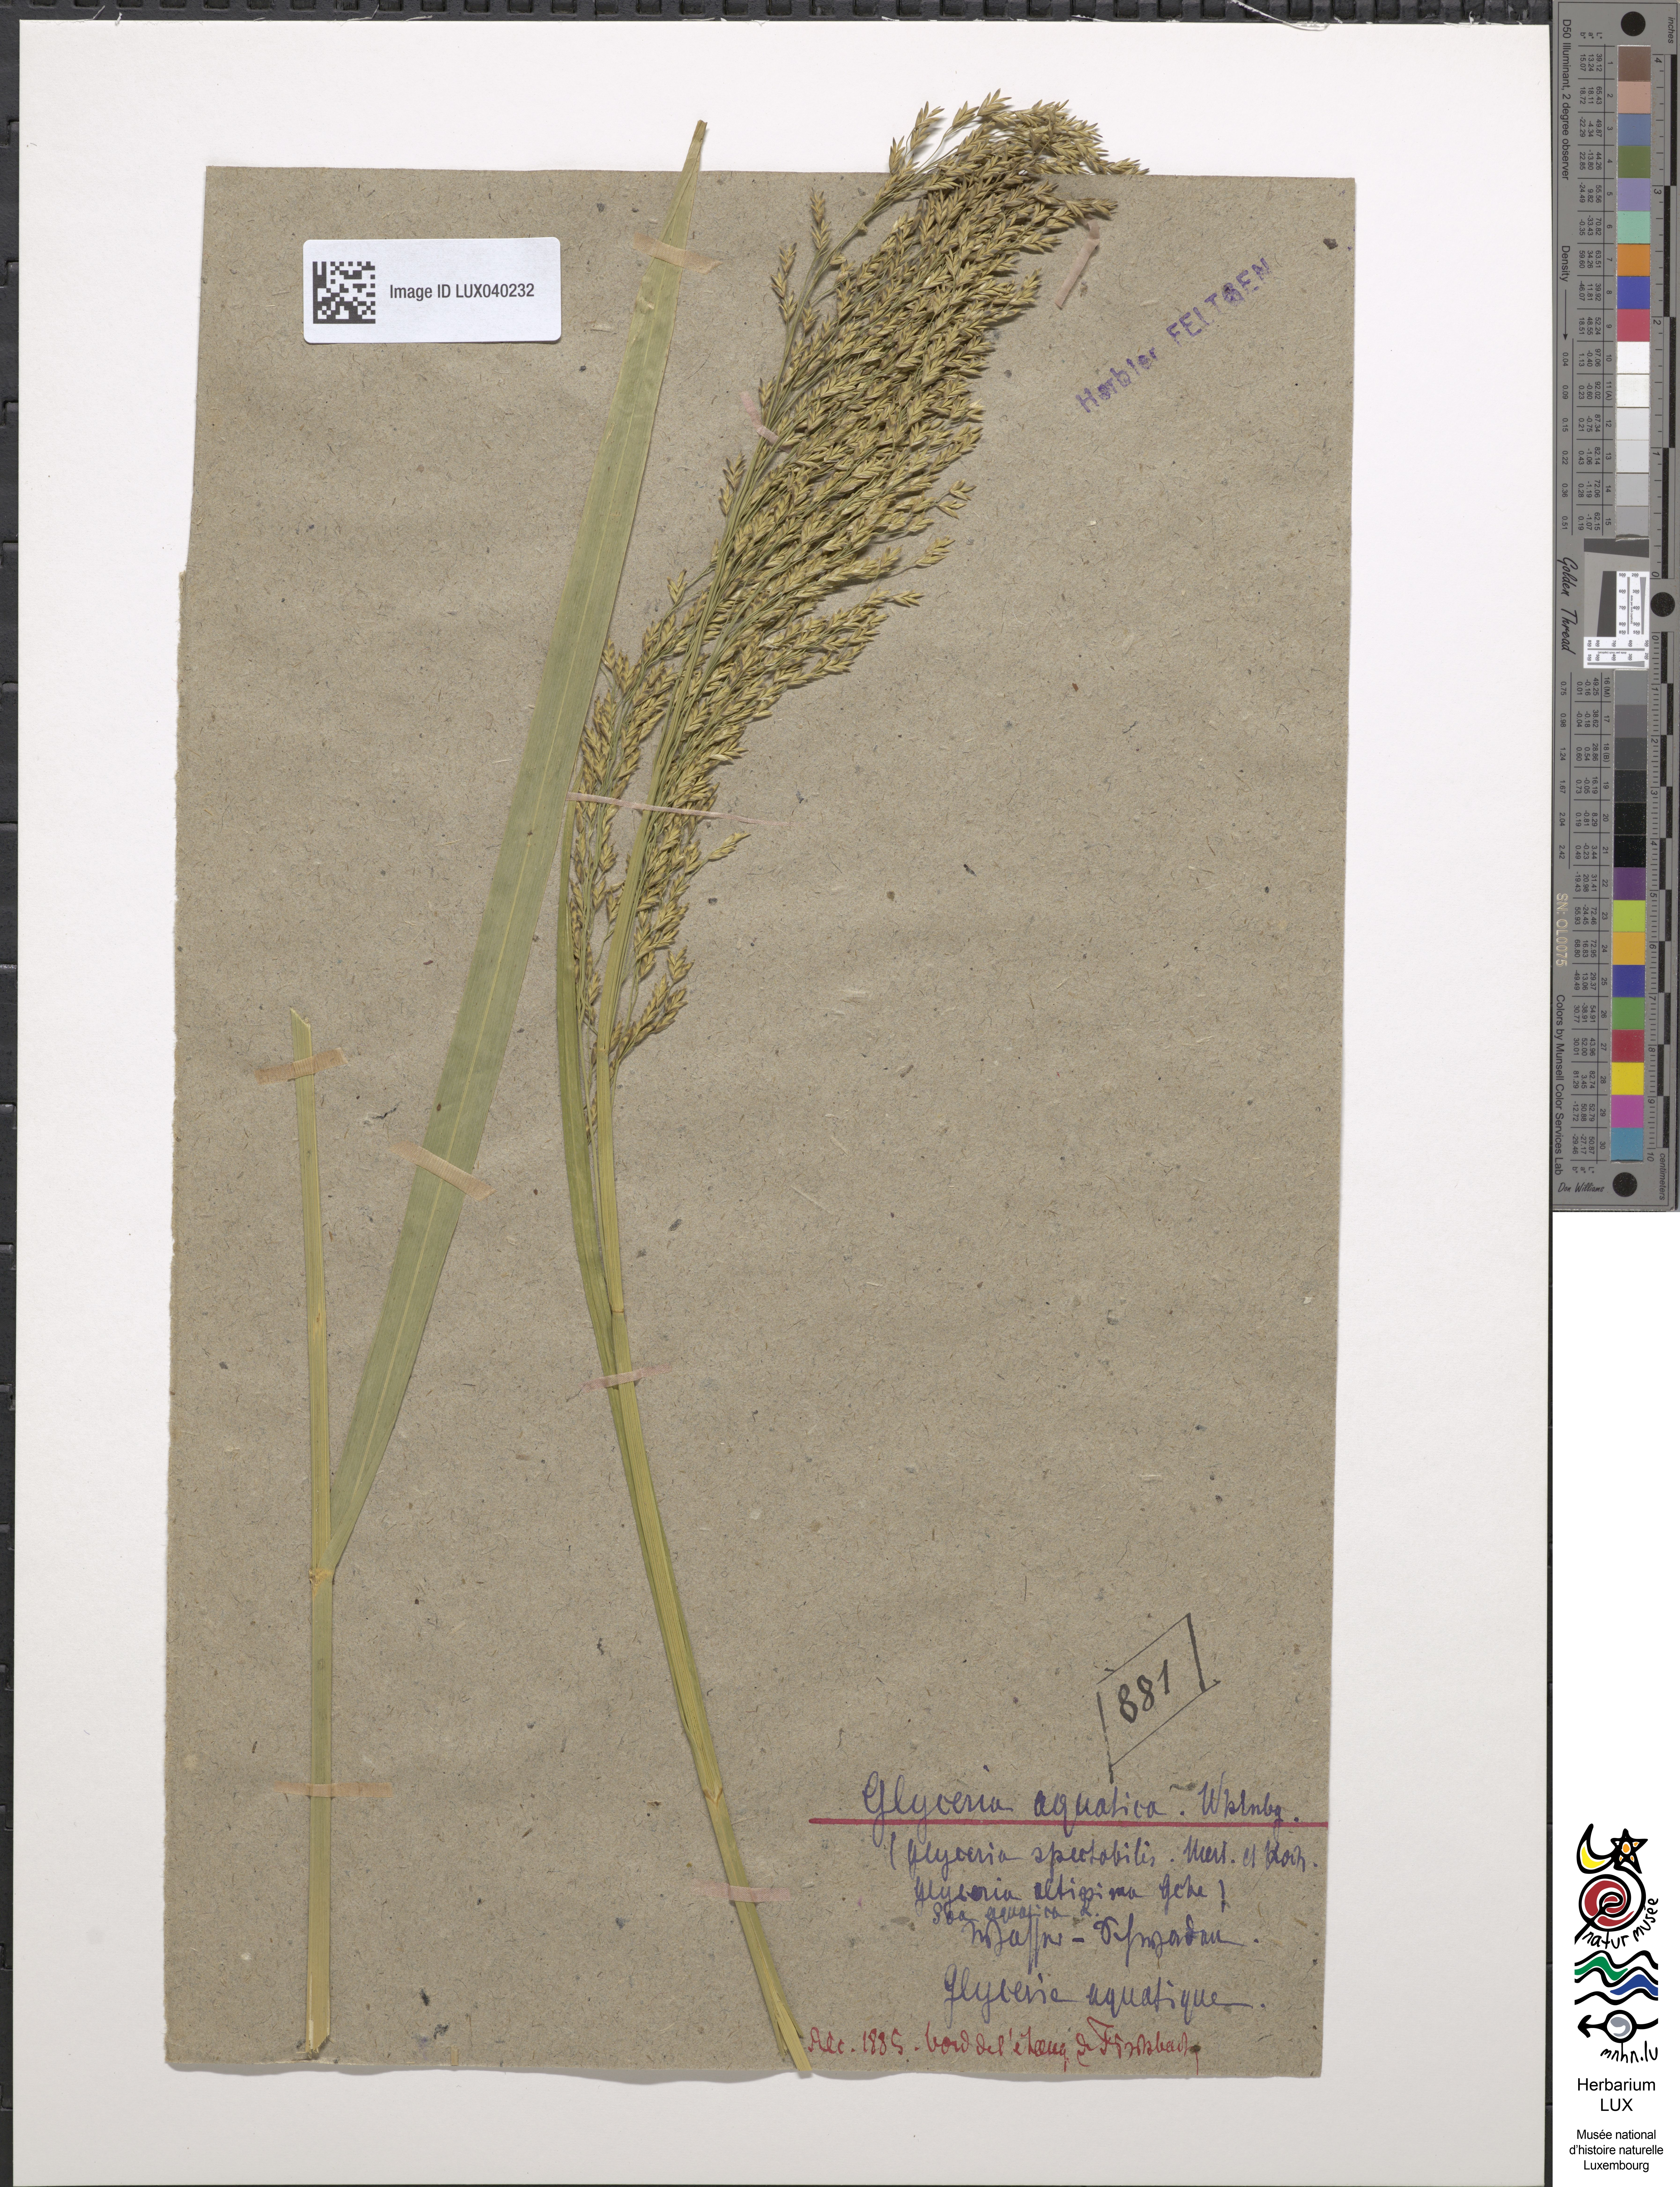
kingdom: Plantae
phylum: Tracheophyta
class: Liliopsida
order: Poales
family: Poaceae
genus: Glyceria
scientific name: Glyceria maxima
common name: Reed mannagrass
